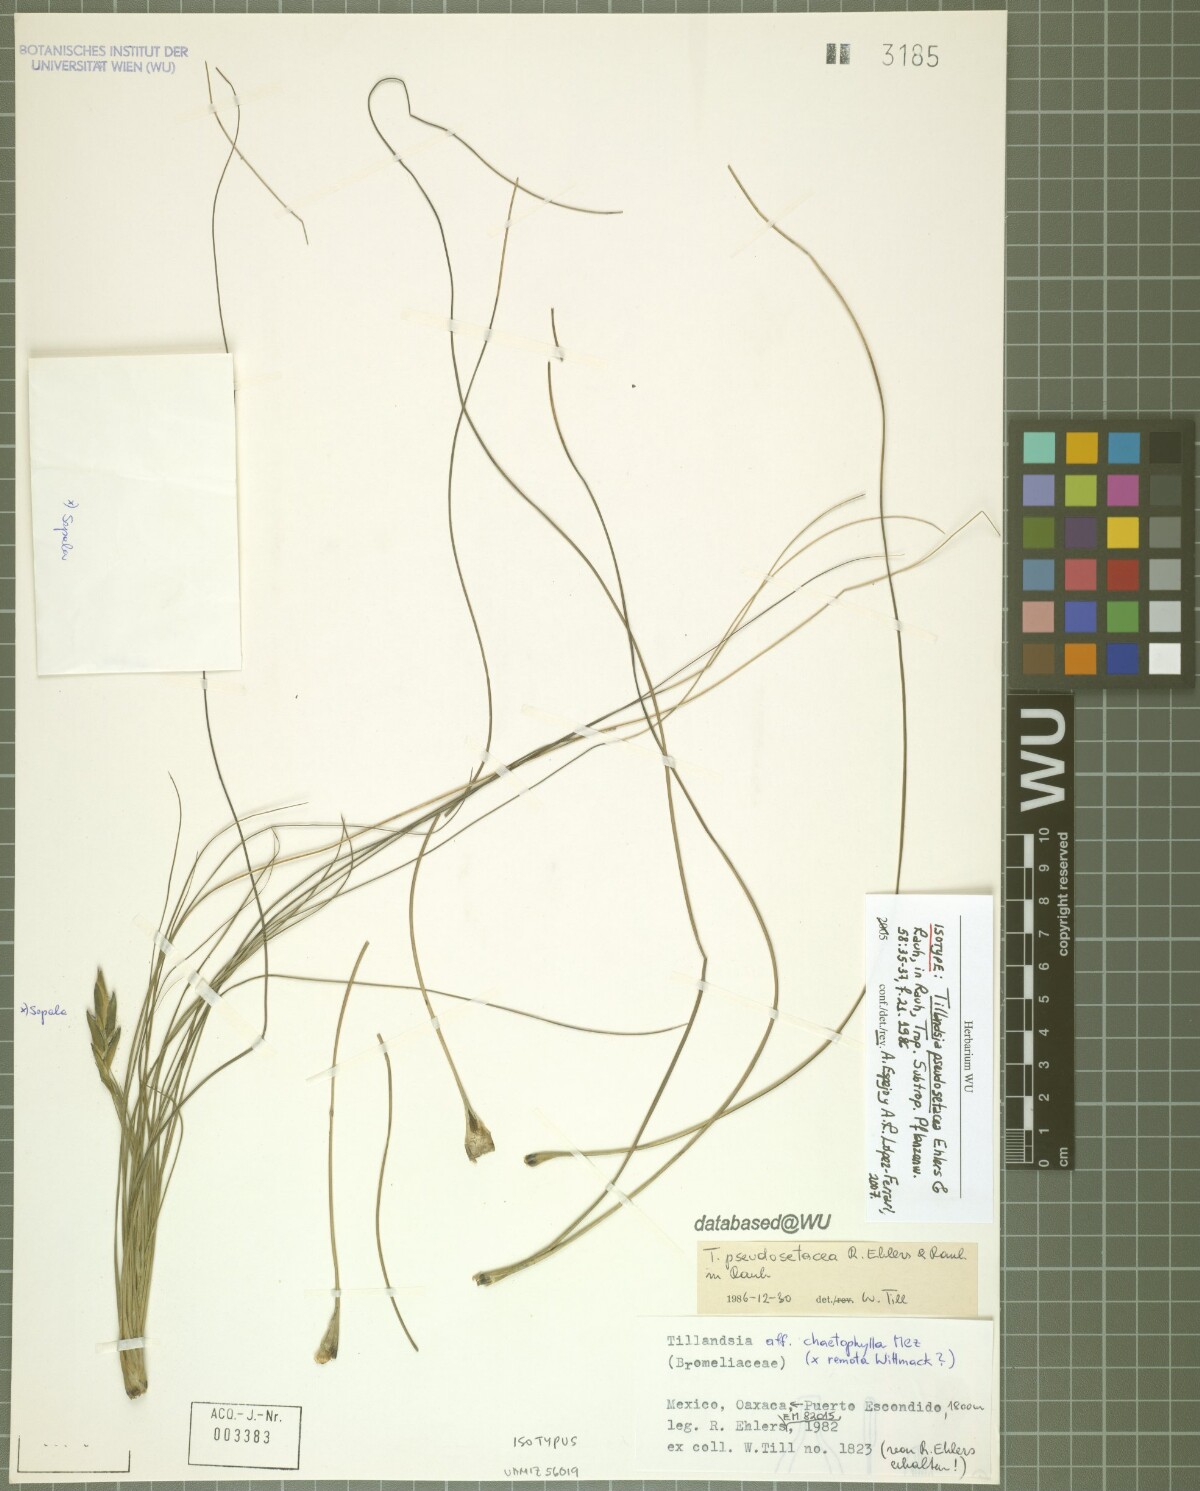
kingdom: Plantae
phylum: Tracheophyta
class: Liliopsida
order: Poales
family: Bromeliaceae
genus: Tillandsia
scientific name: Tillandsia pseudosetacea
